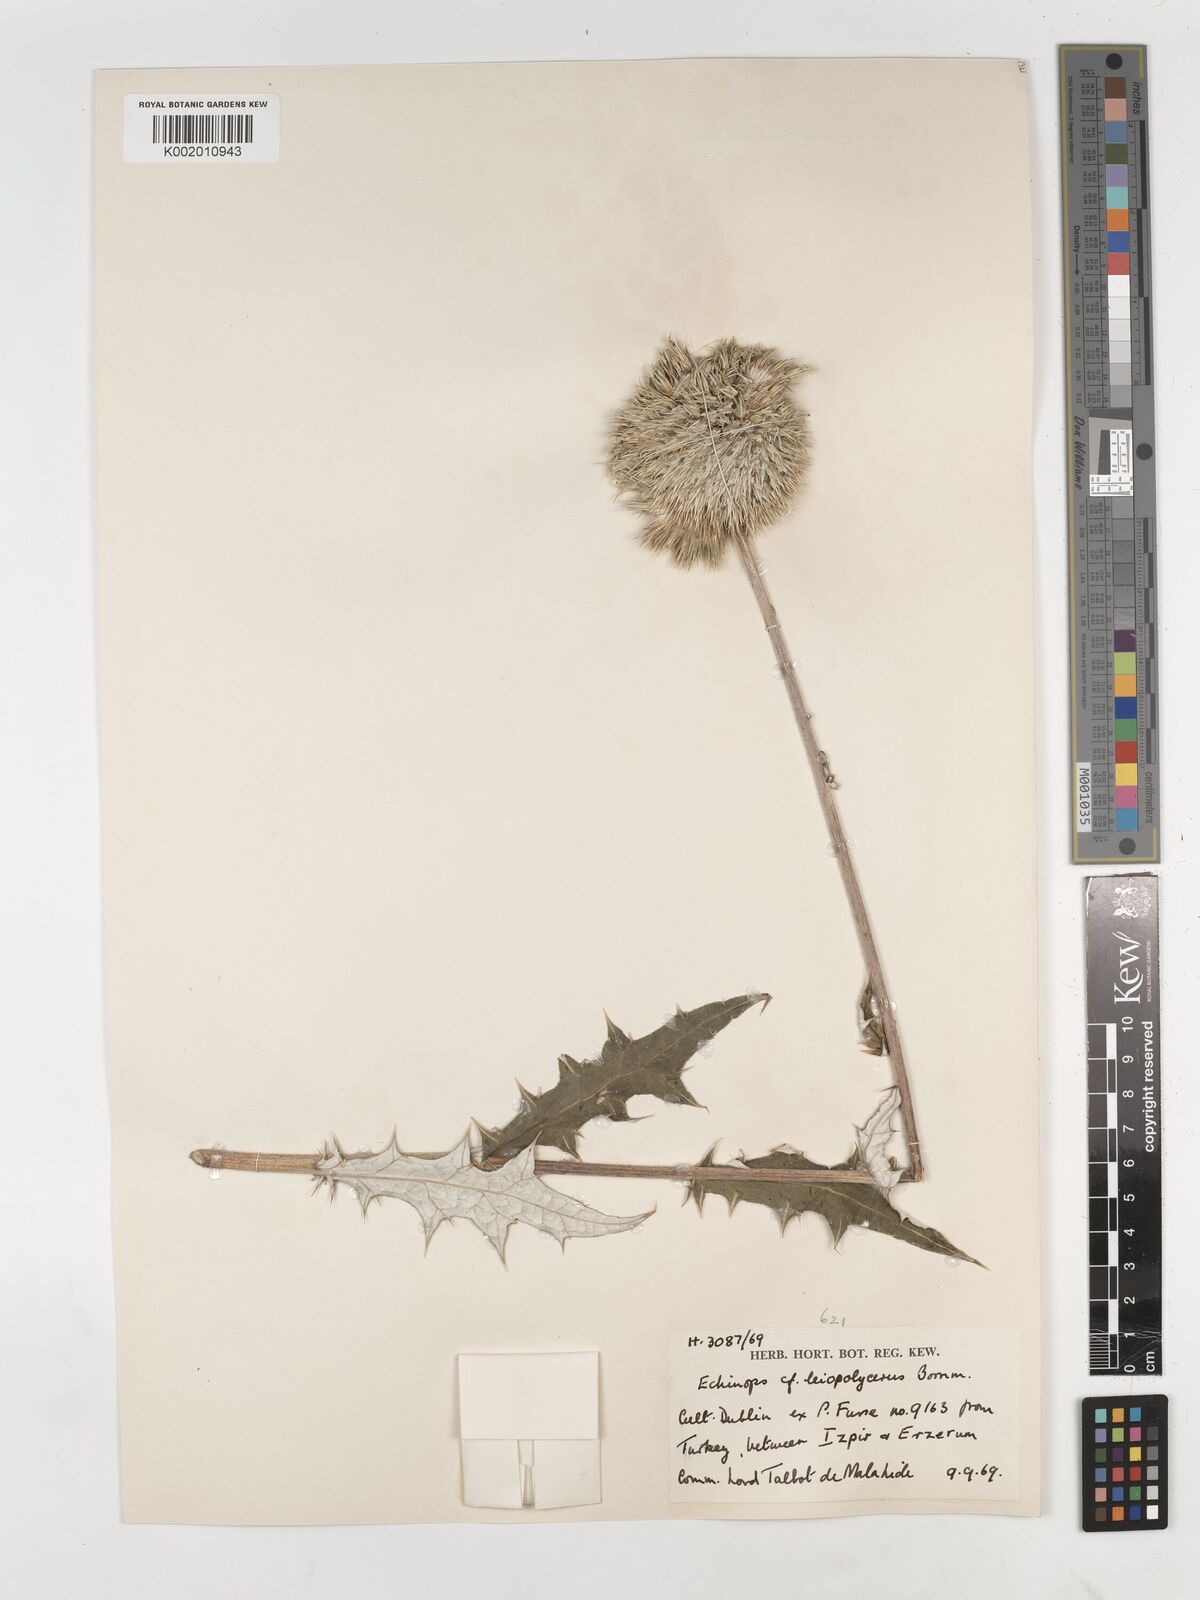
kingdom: Plantae
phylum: Tracheophyta
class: Magnoliopsida
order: Asterales
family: Asteraceae
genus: Echinops
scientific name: Echinops
